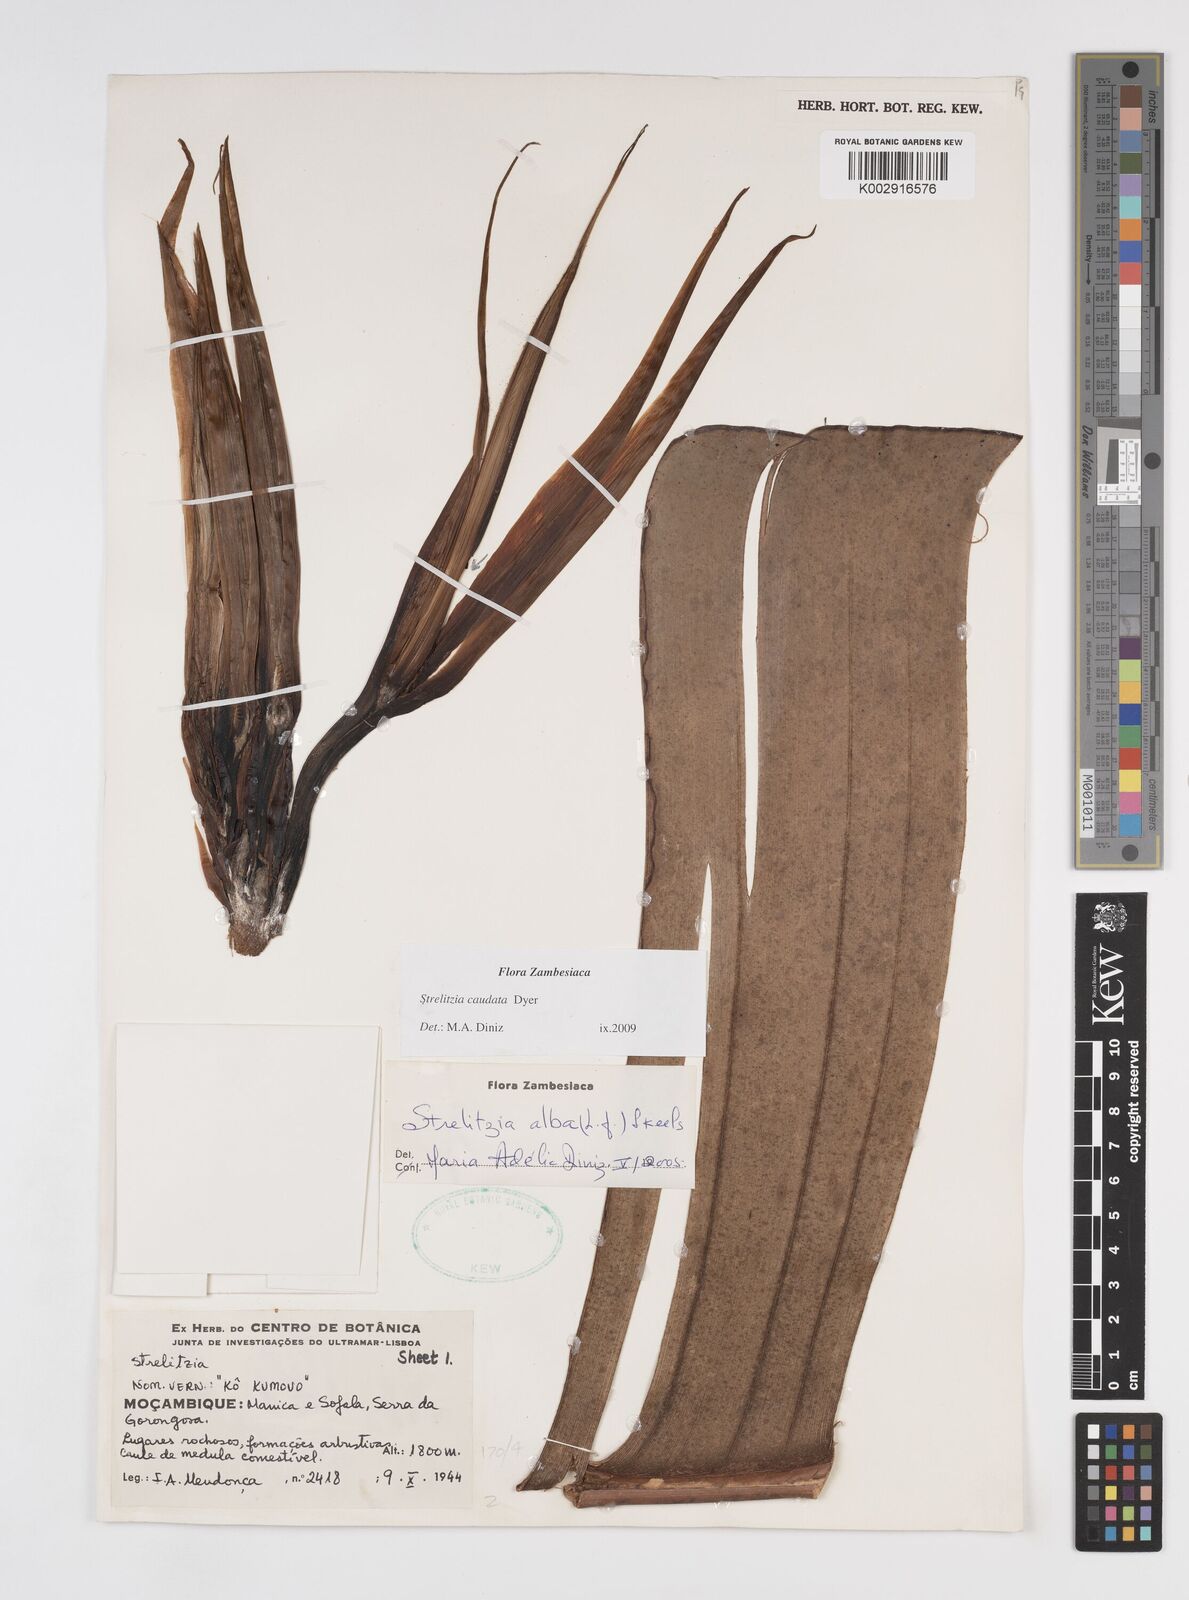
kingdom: Plantae
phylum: Tracheophyta
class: Liliopsida
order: Zingiberales
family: Strelitziaceae
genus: Strelitzia
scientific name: Strelitzia caudata
